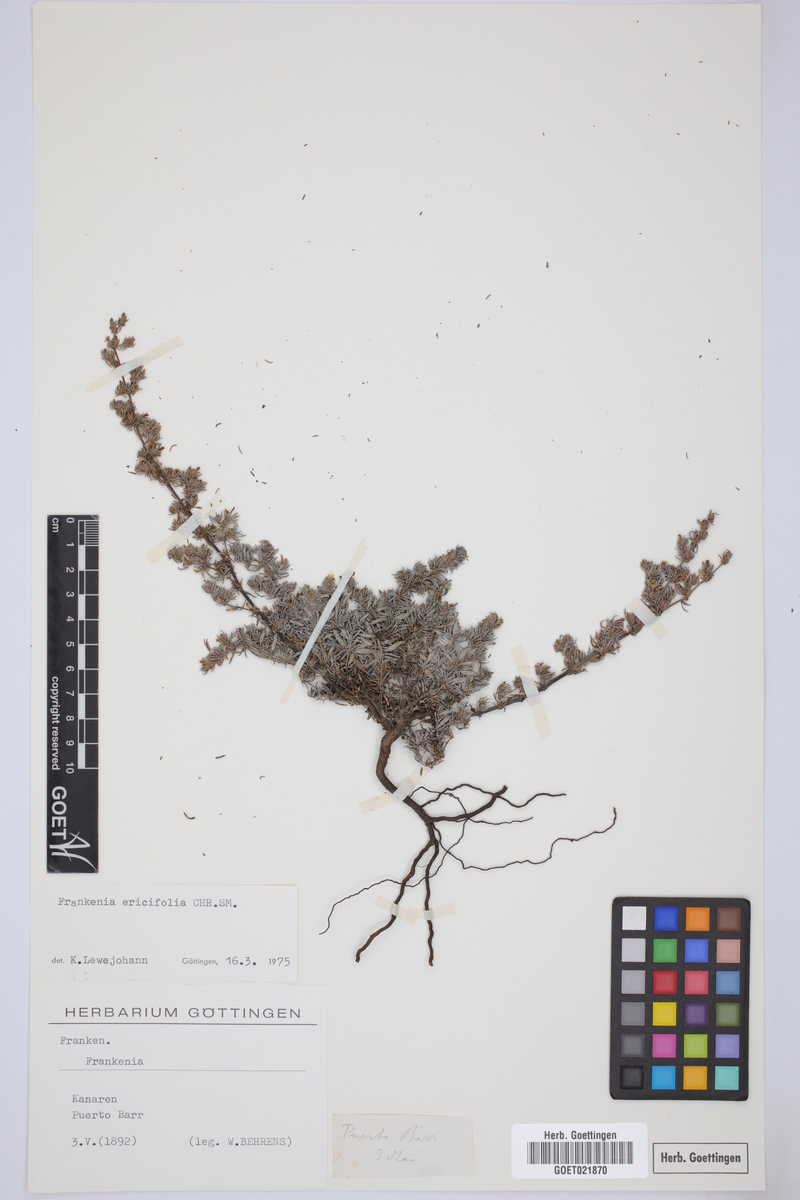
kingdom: Plantae
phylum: Tracheophyta
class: Magnoliopsida
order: Caryophyllales
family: Frankeniaceae
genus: Frankenia
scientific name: Frankenia ericifolia
